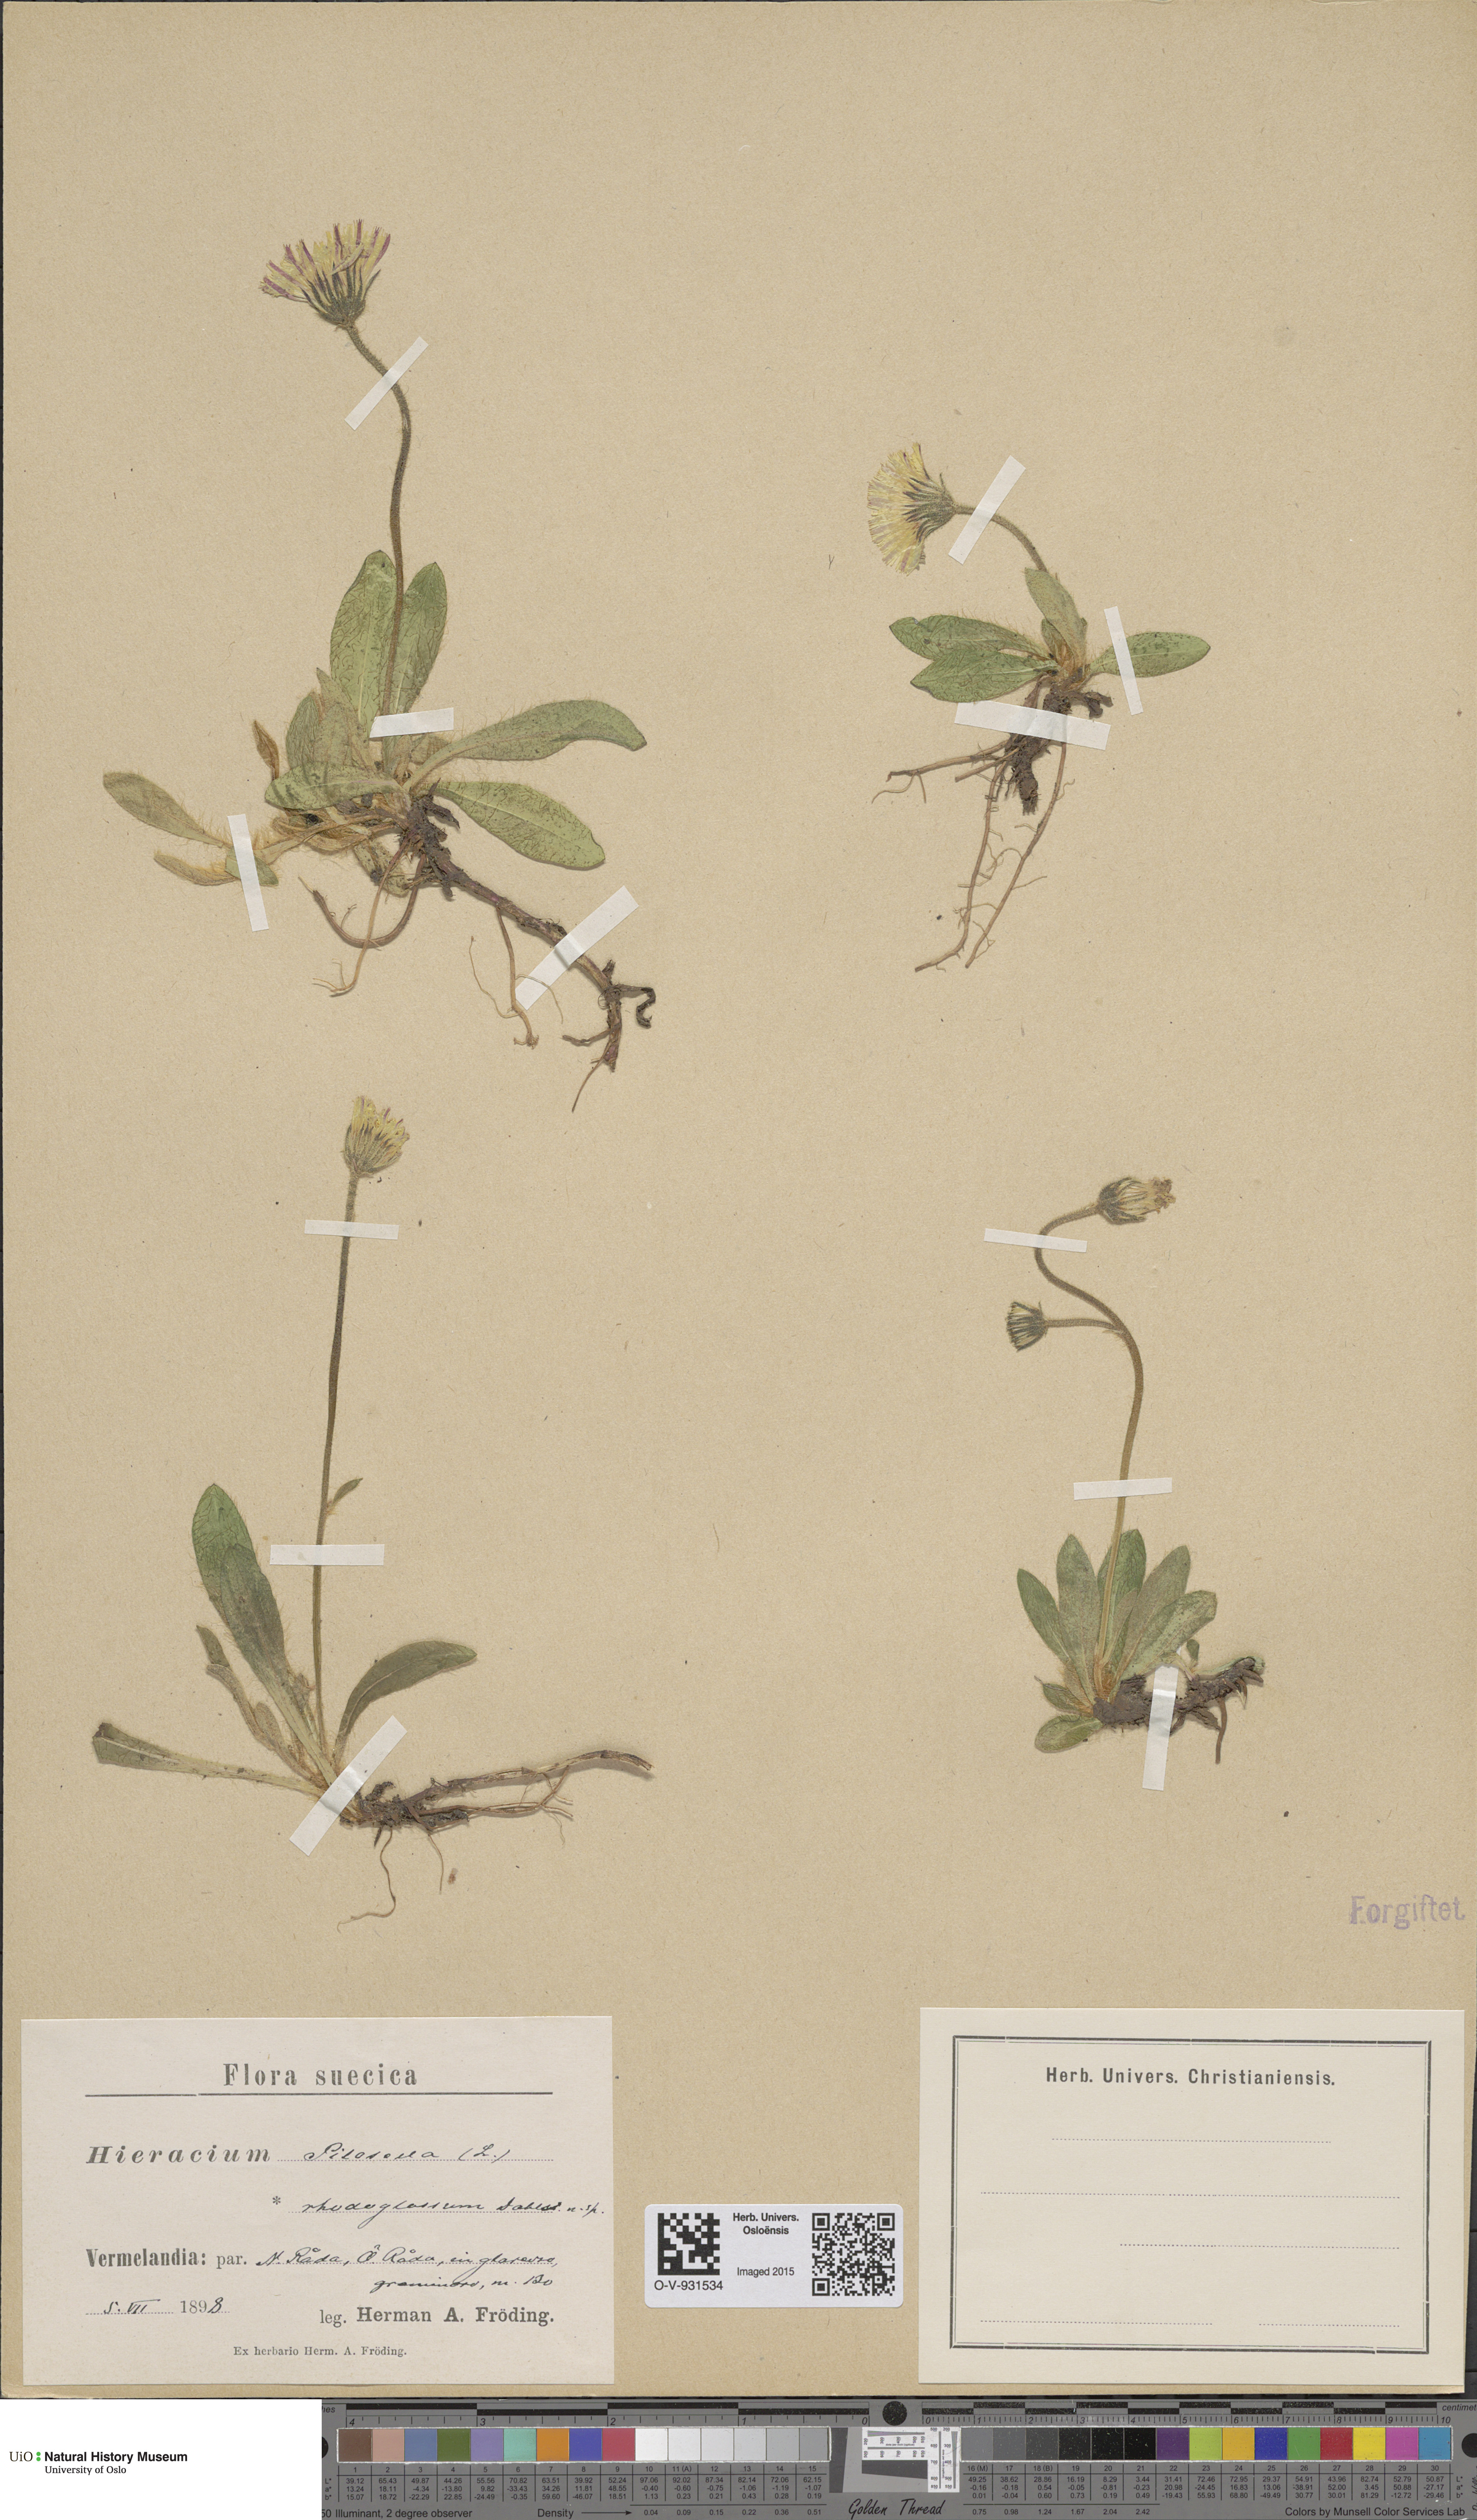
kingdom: Plantae
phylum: Tracheophyta
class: Magnoliopsida
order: Asterales
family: Asteraceae
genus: Pilosella
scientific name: Pilosella officinarum
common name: Mouse-ear hawkweed
